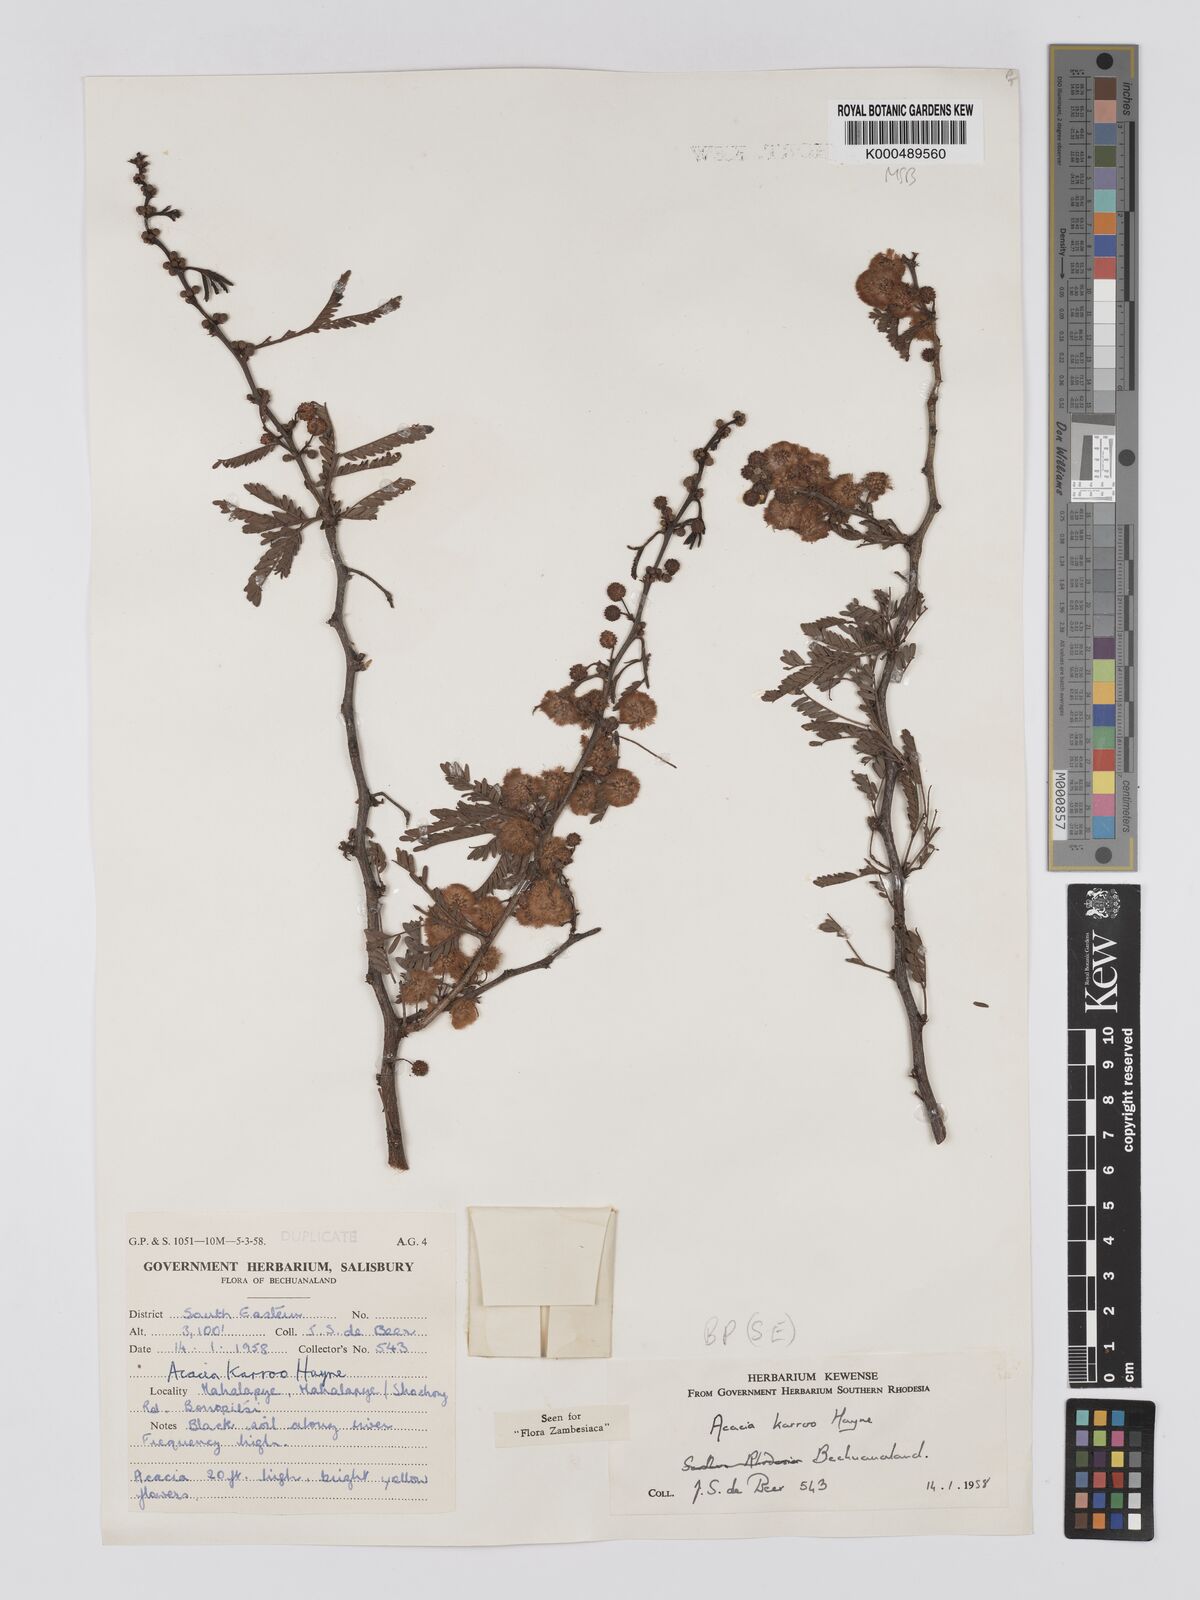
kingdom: Plantae
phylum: Tracheophyta
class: Magnoliopsida
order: Fabales
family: Fabaceae
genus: Vachellia
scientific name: Vachellia karroo
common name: Sweet thorn
